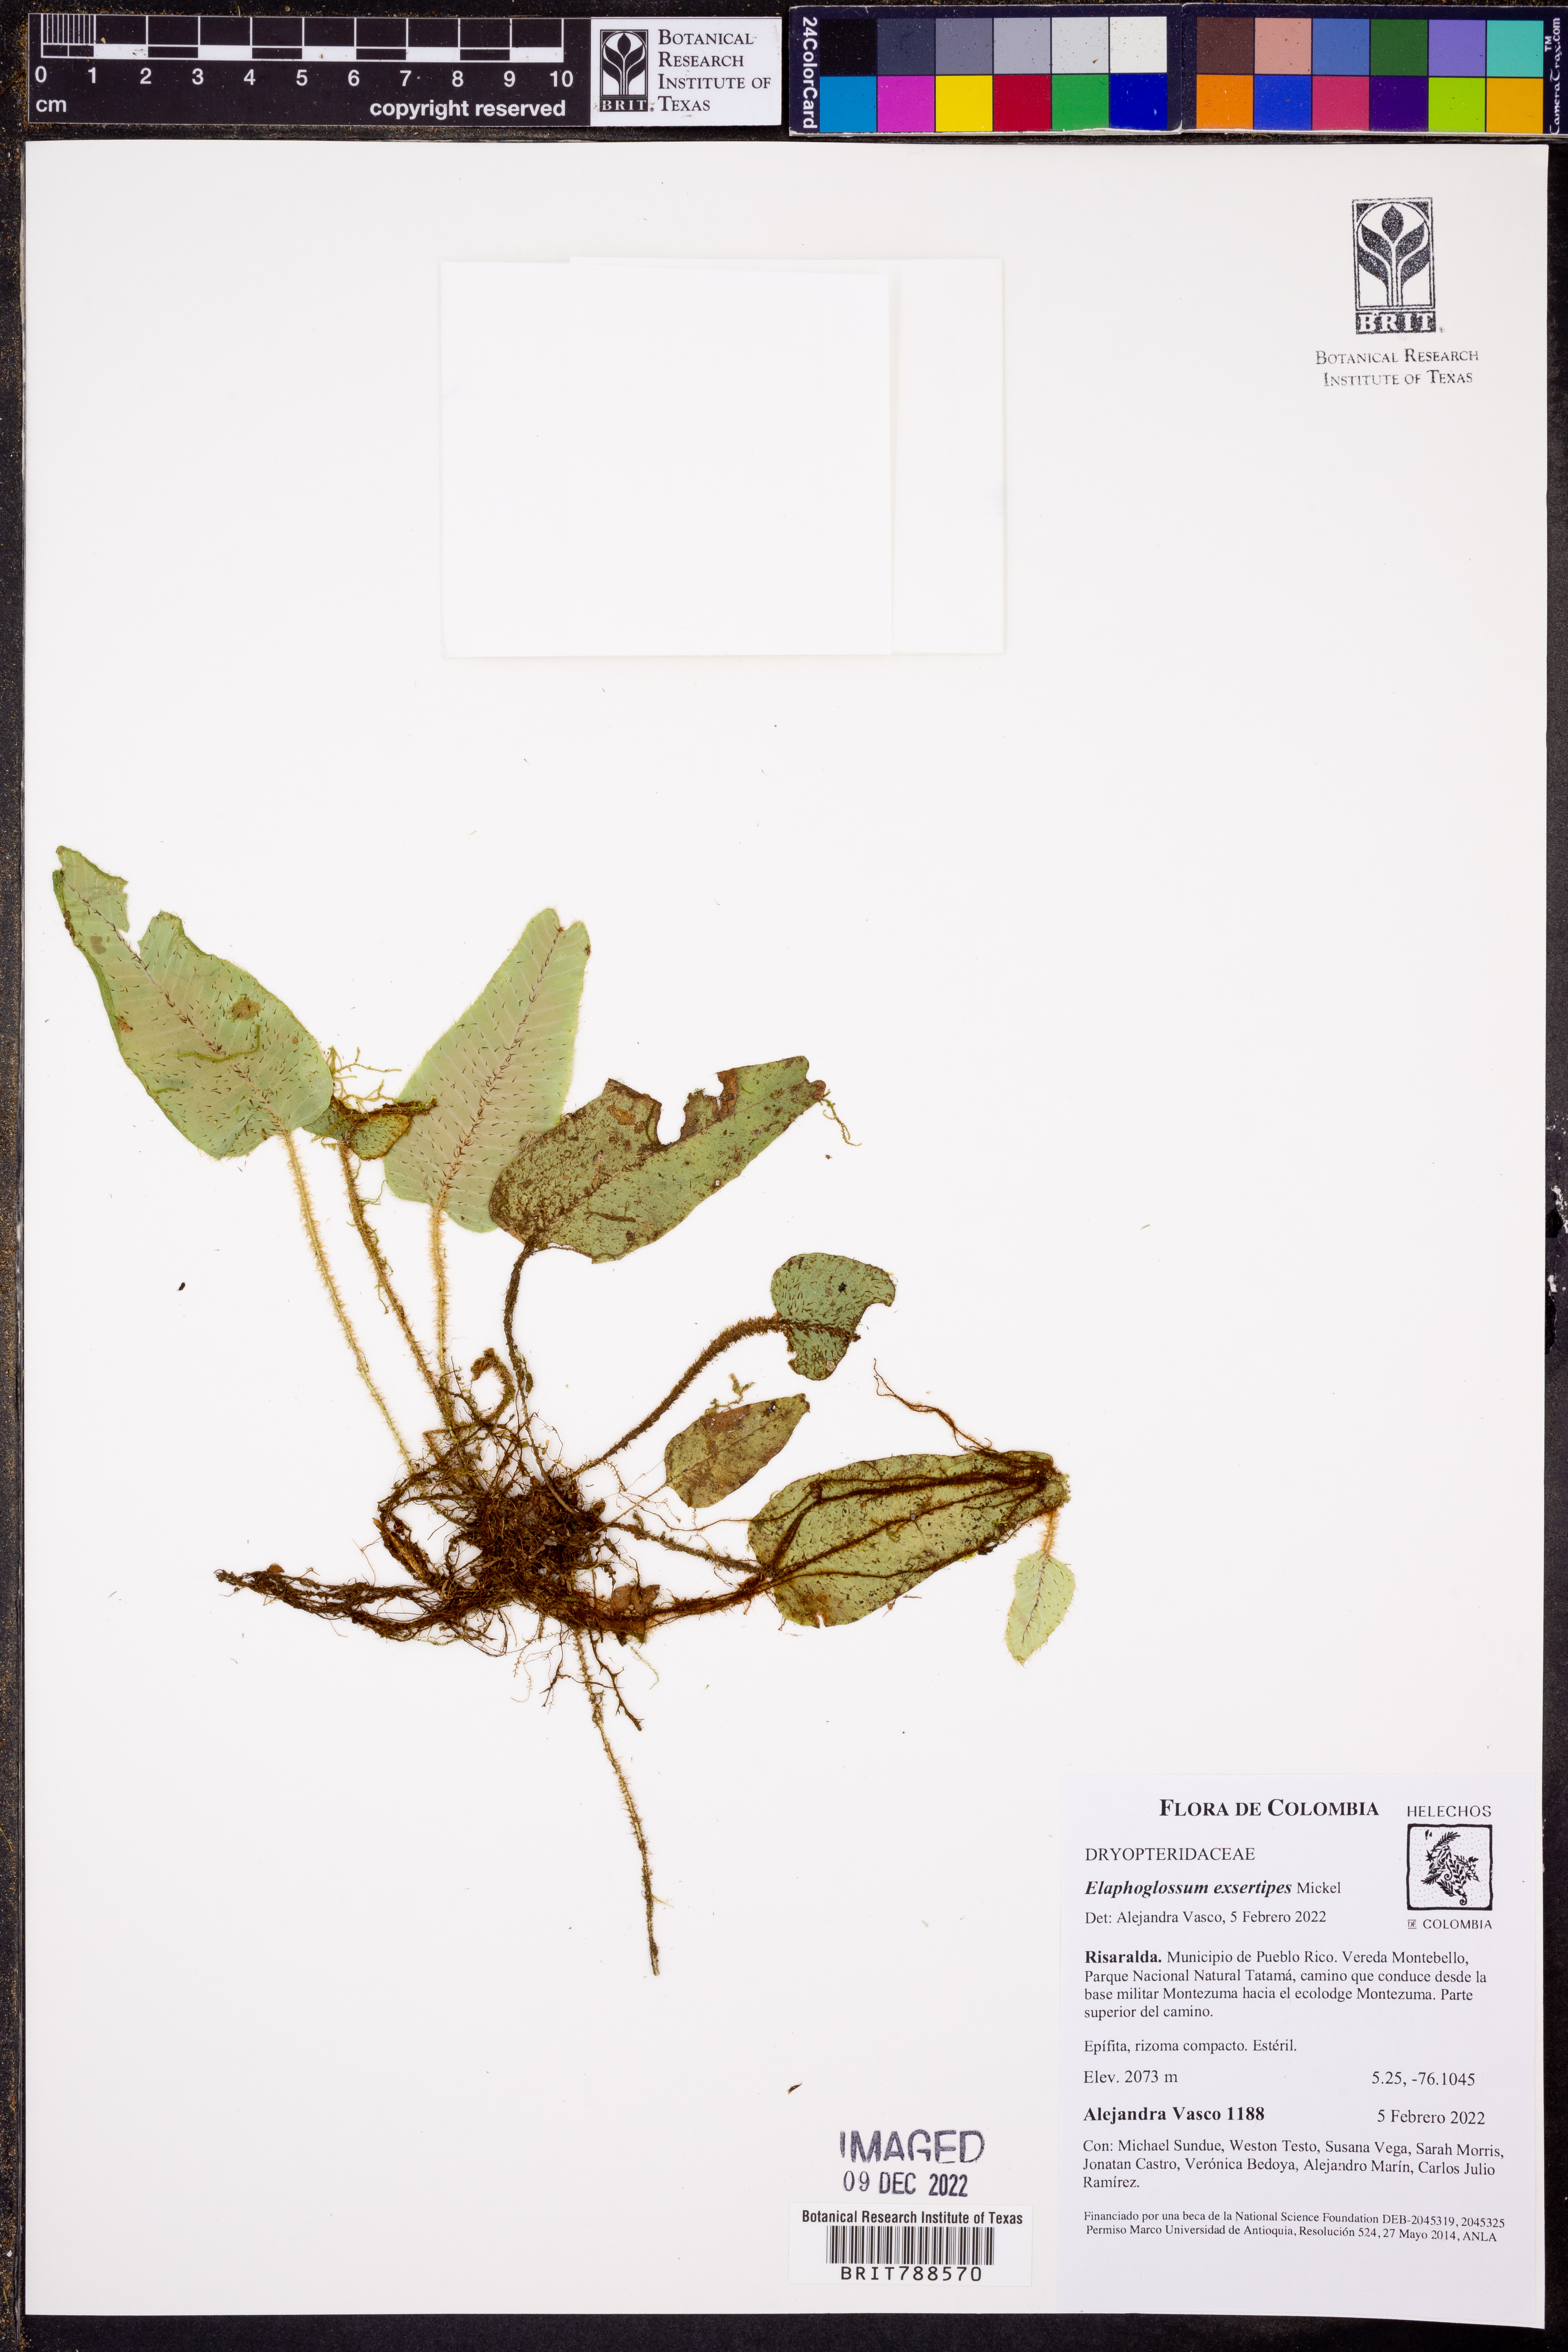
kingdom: Plantae
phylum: Tracheophyta
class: Polypodiopsida
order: Polypodiales
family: Dryopteridaceae
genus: Elaphoglossum
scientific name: Elaphoglossum exsertipes
